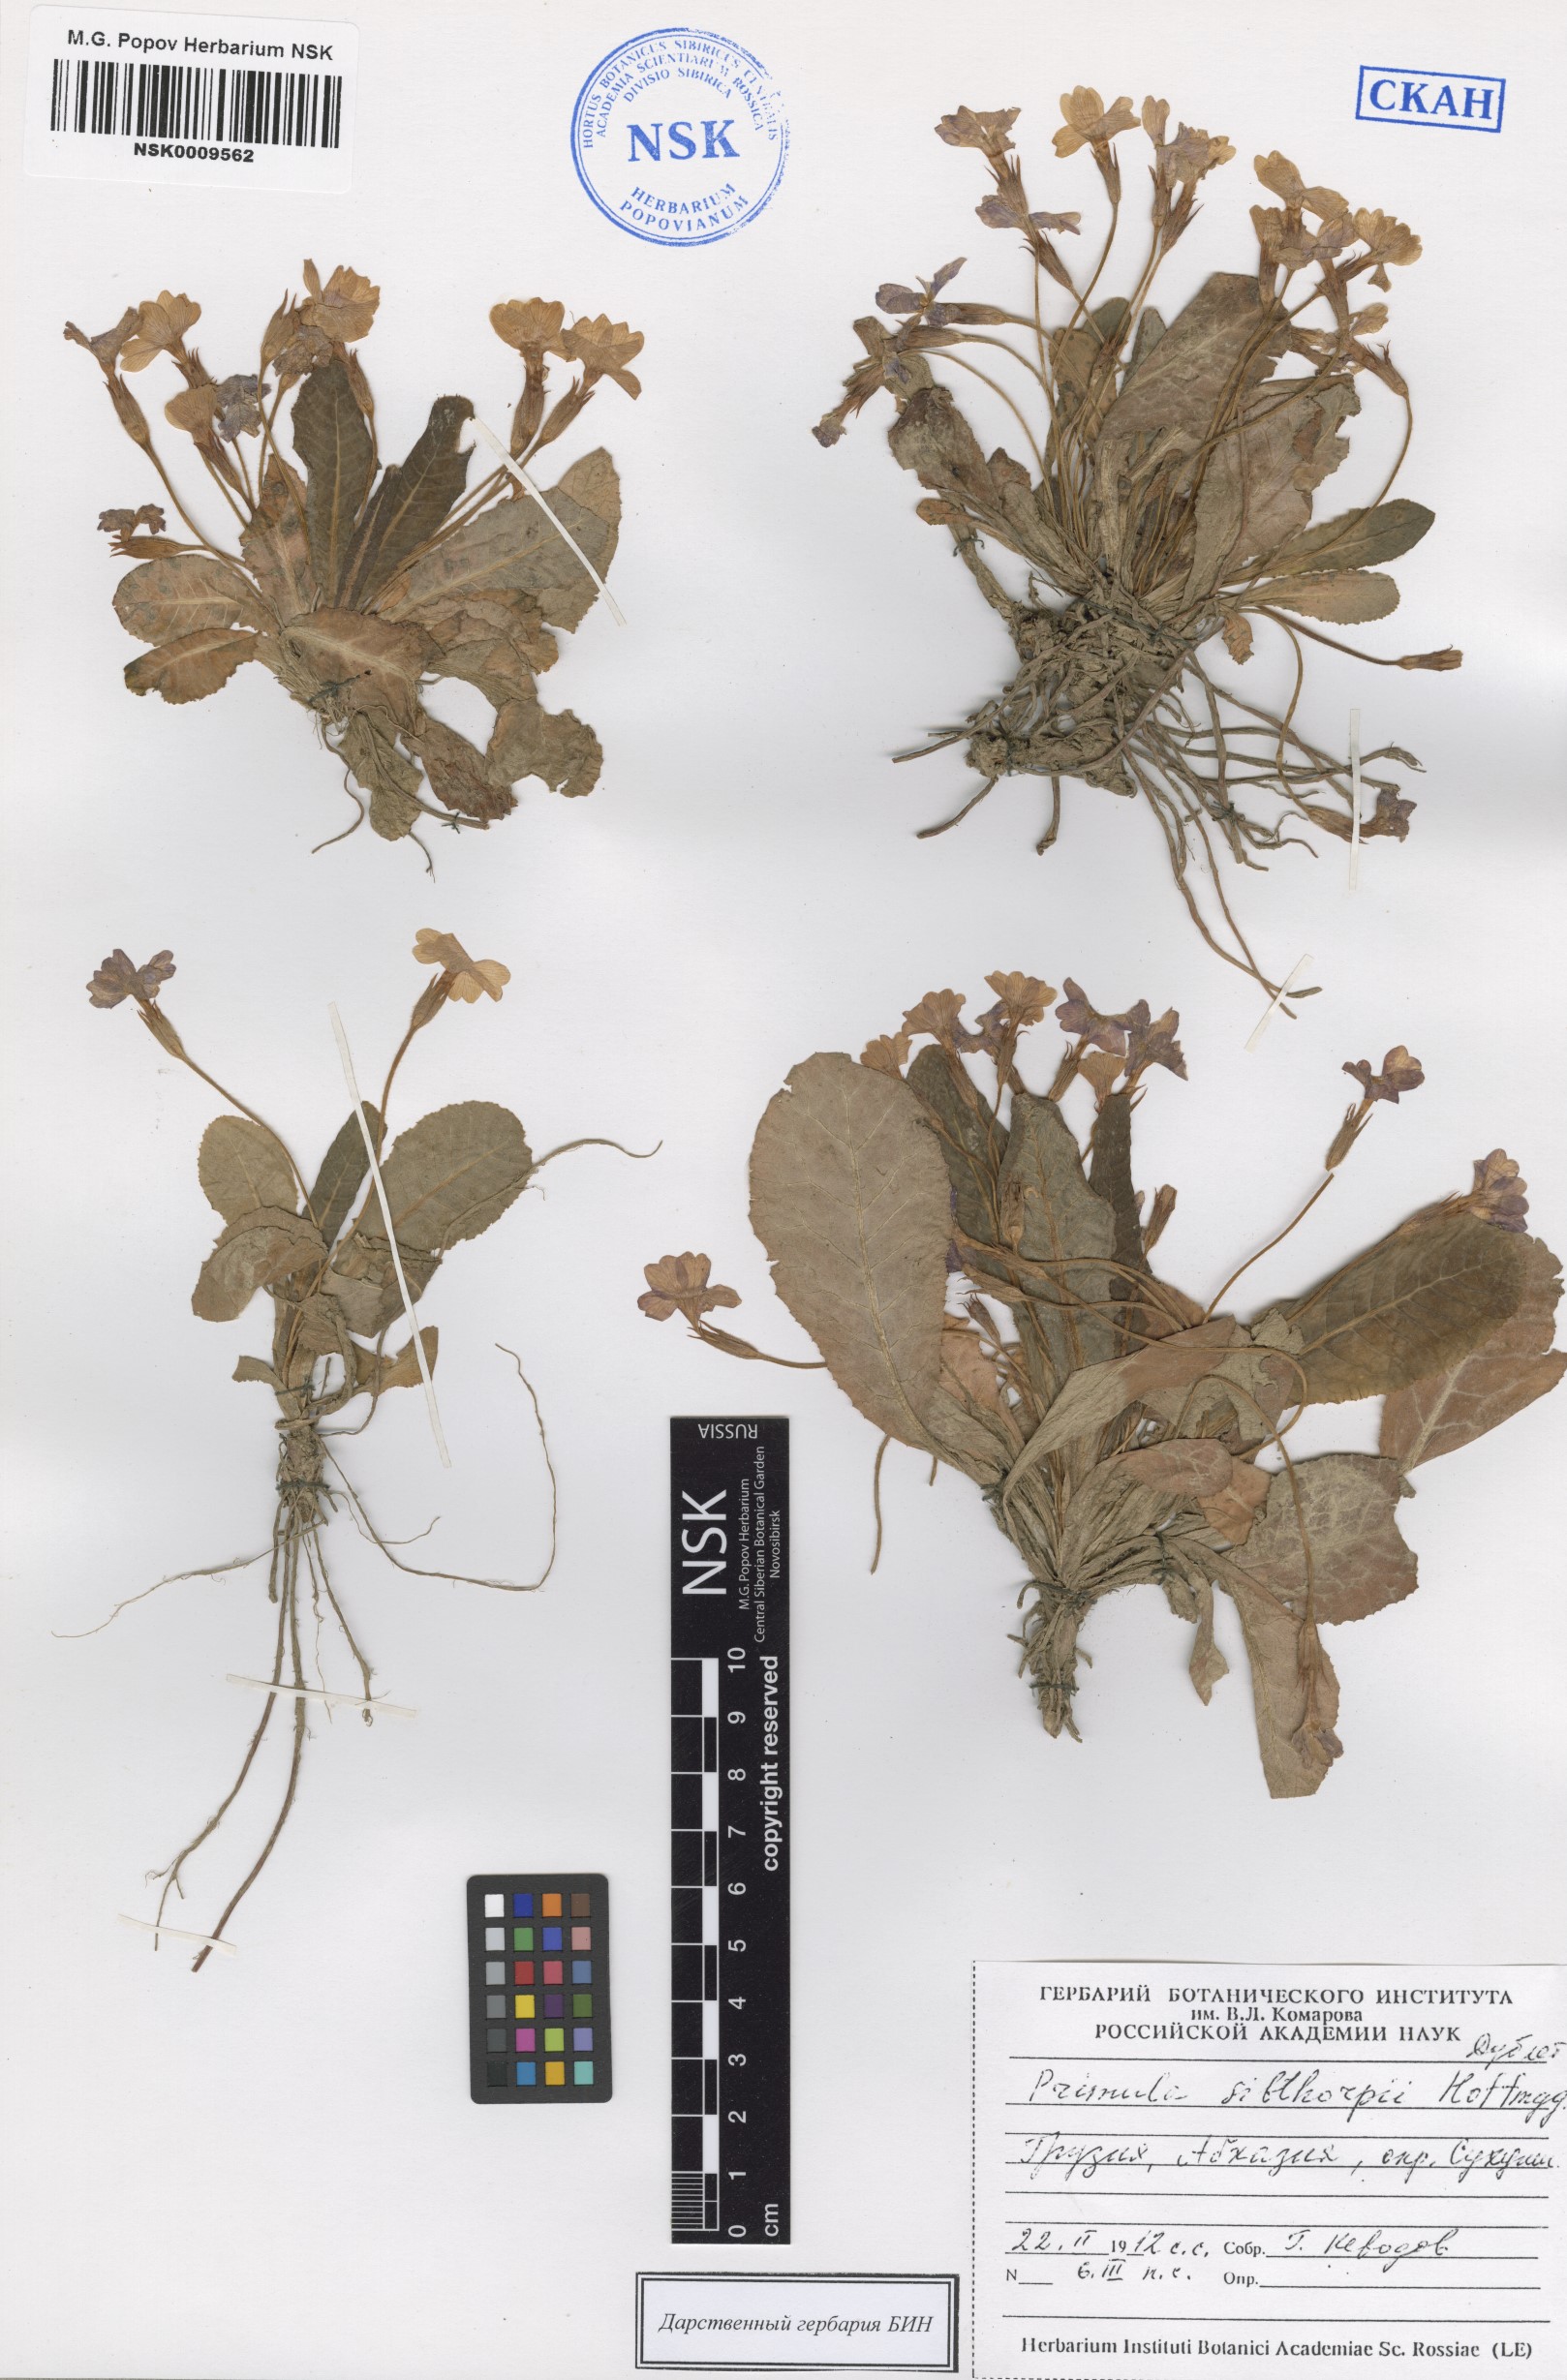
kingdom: Plantae
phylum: Tracheophyta
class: Magnoliopsida
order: Ericales
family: Primulaceae
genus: Primula
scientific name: Primula vulgaris
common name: Primrose
